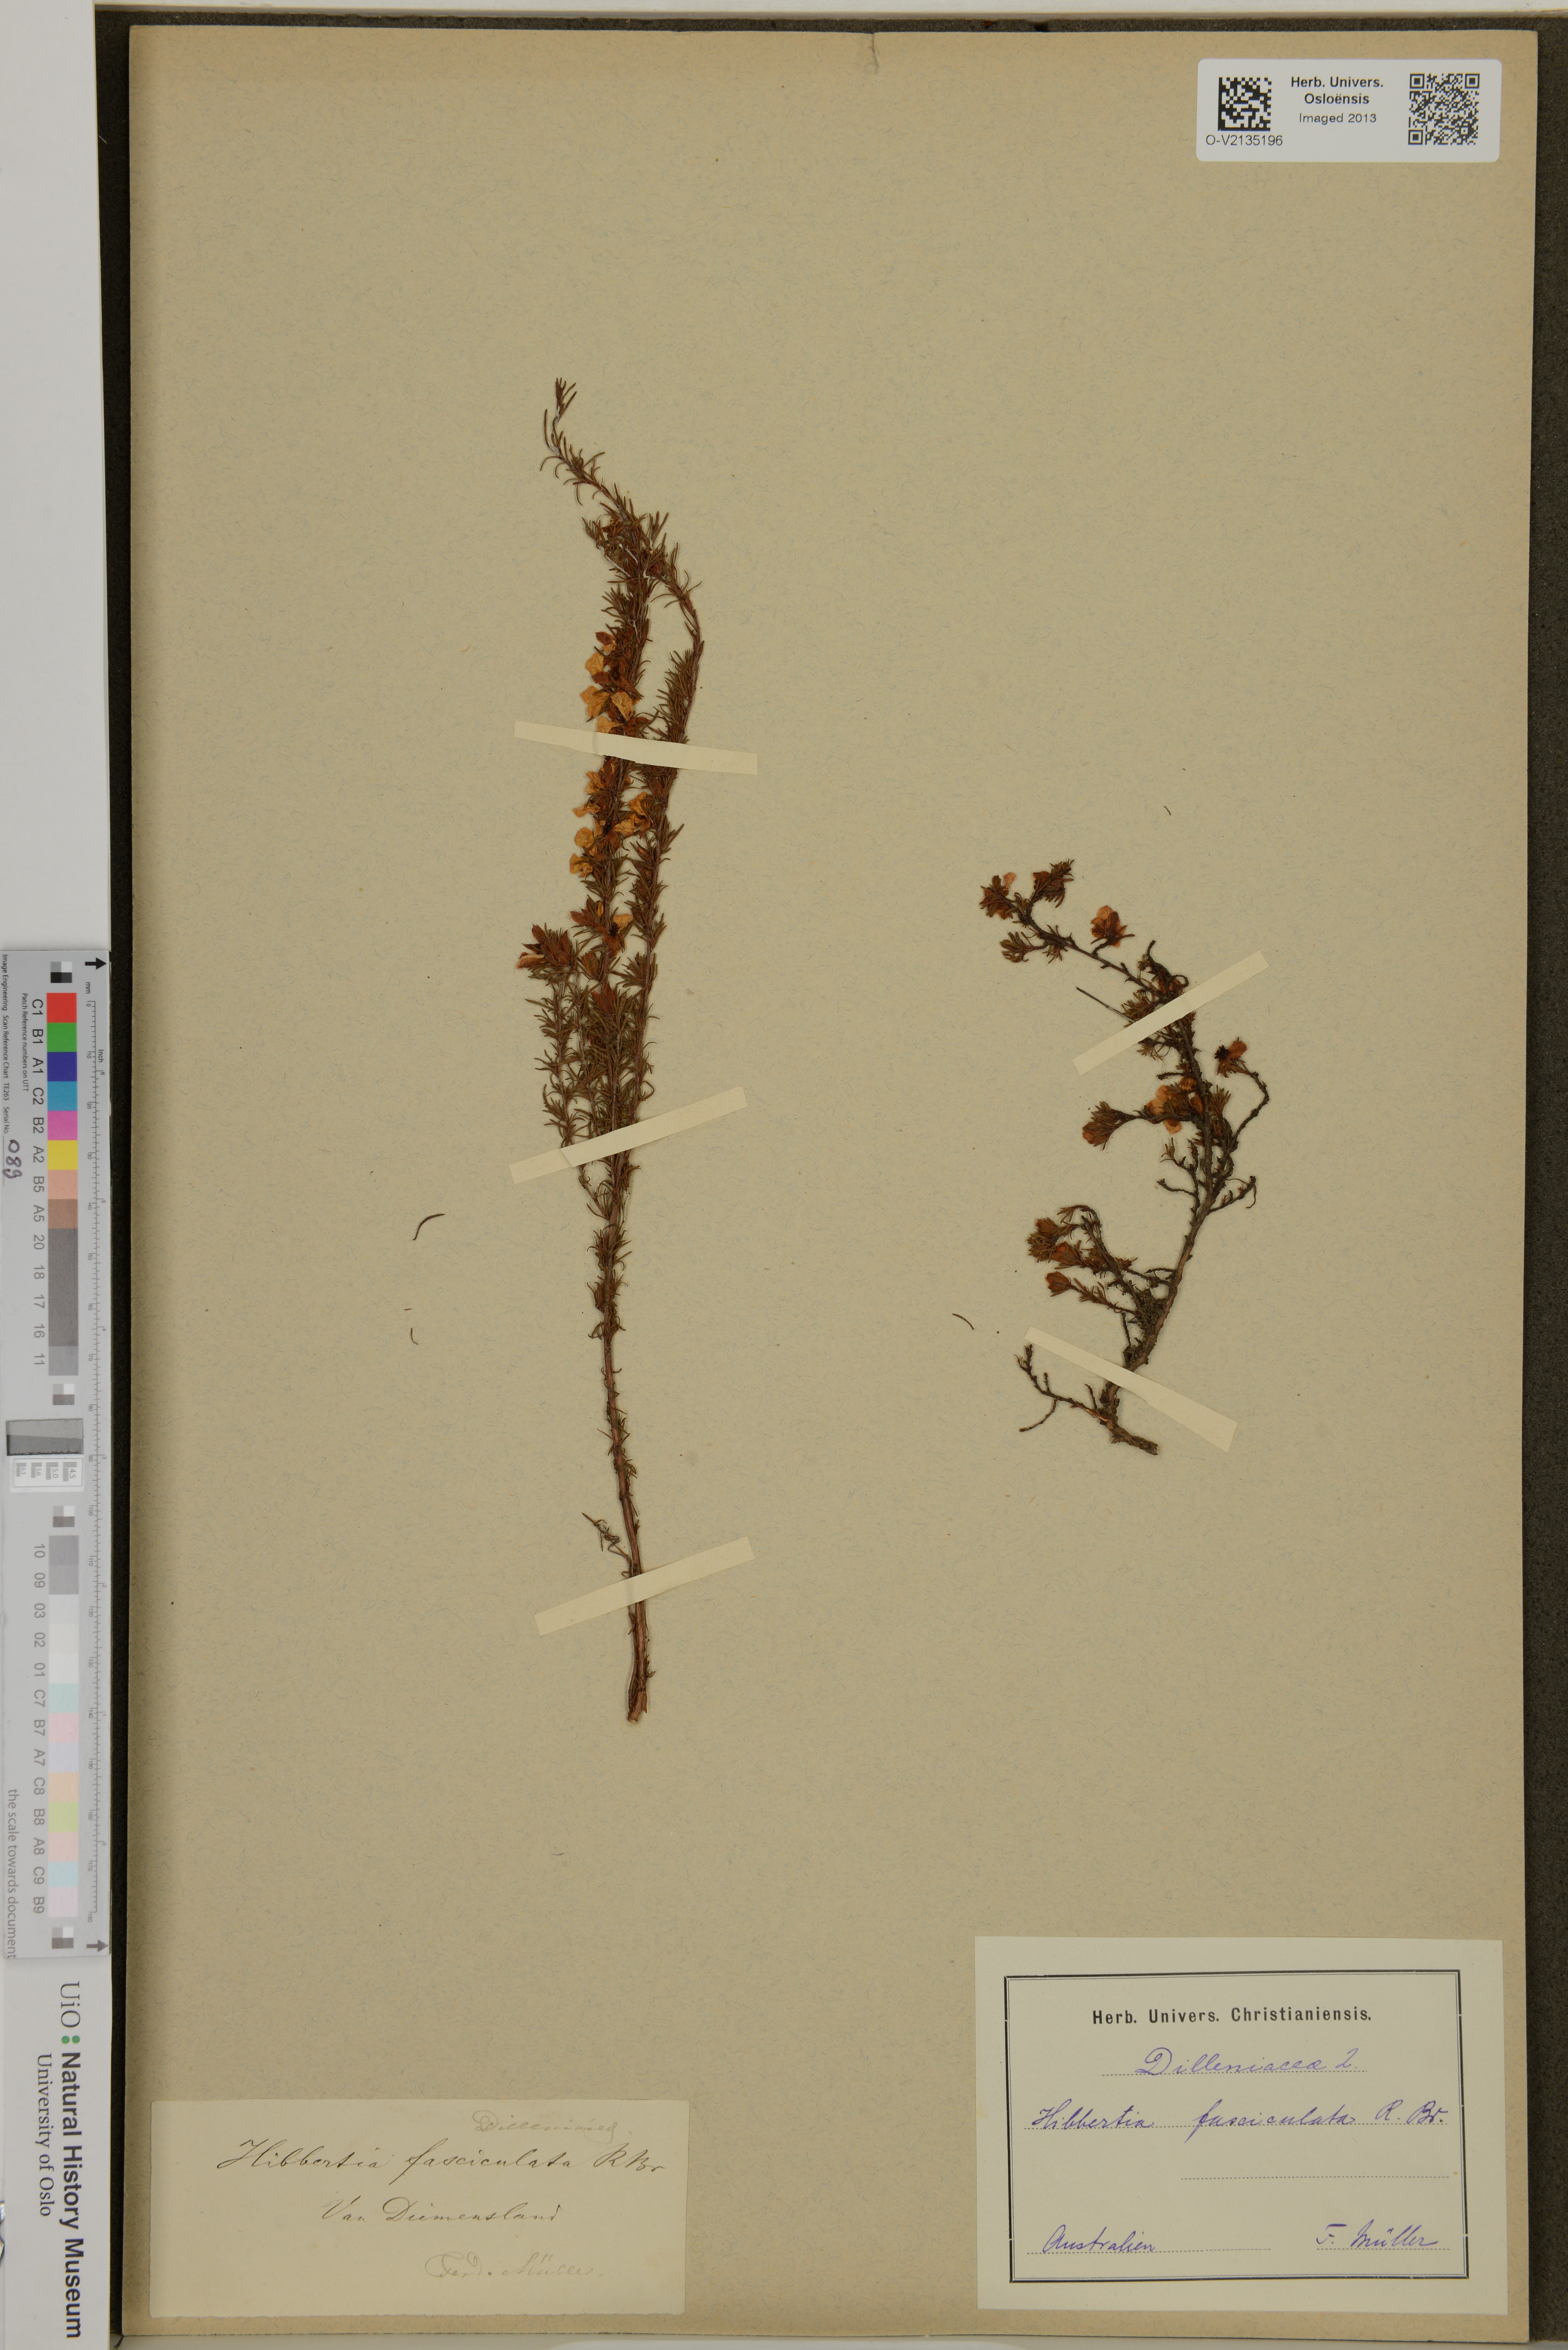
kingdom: Plantae
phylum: Tracheophyta
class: Magnoliopsida
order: Dilleniales
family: Dilleniaceae
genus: Hibbertia
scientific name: Hibbertia fasciculata
